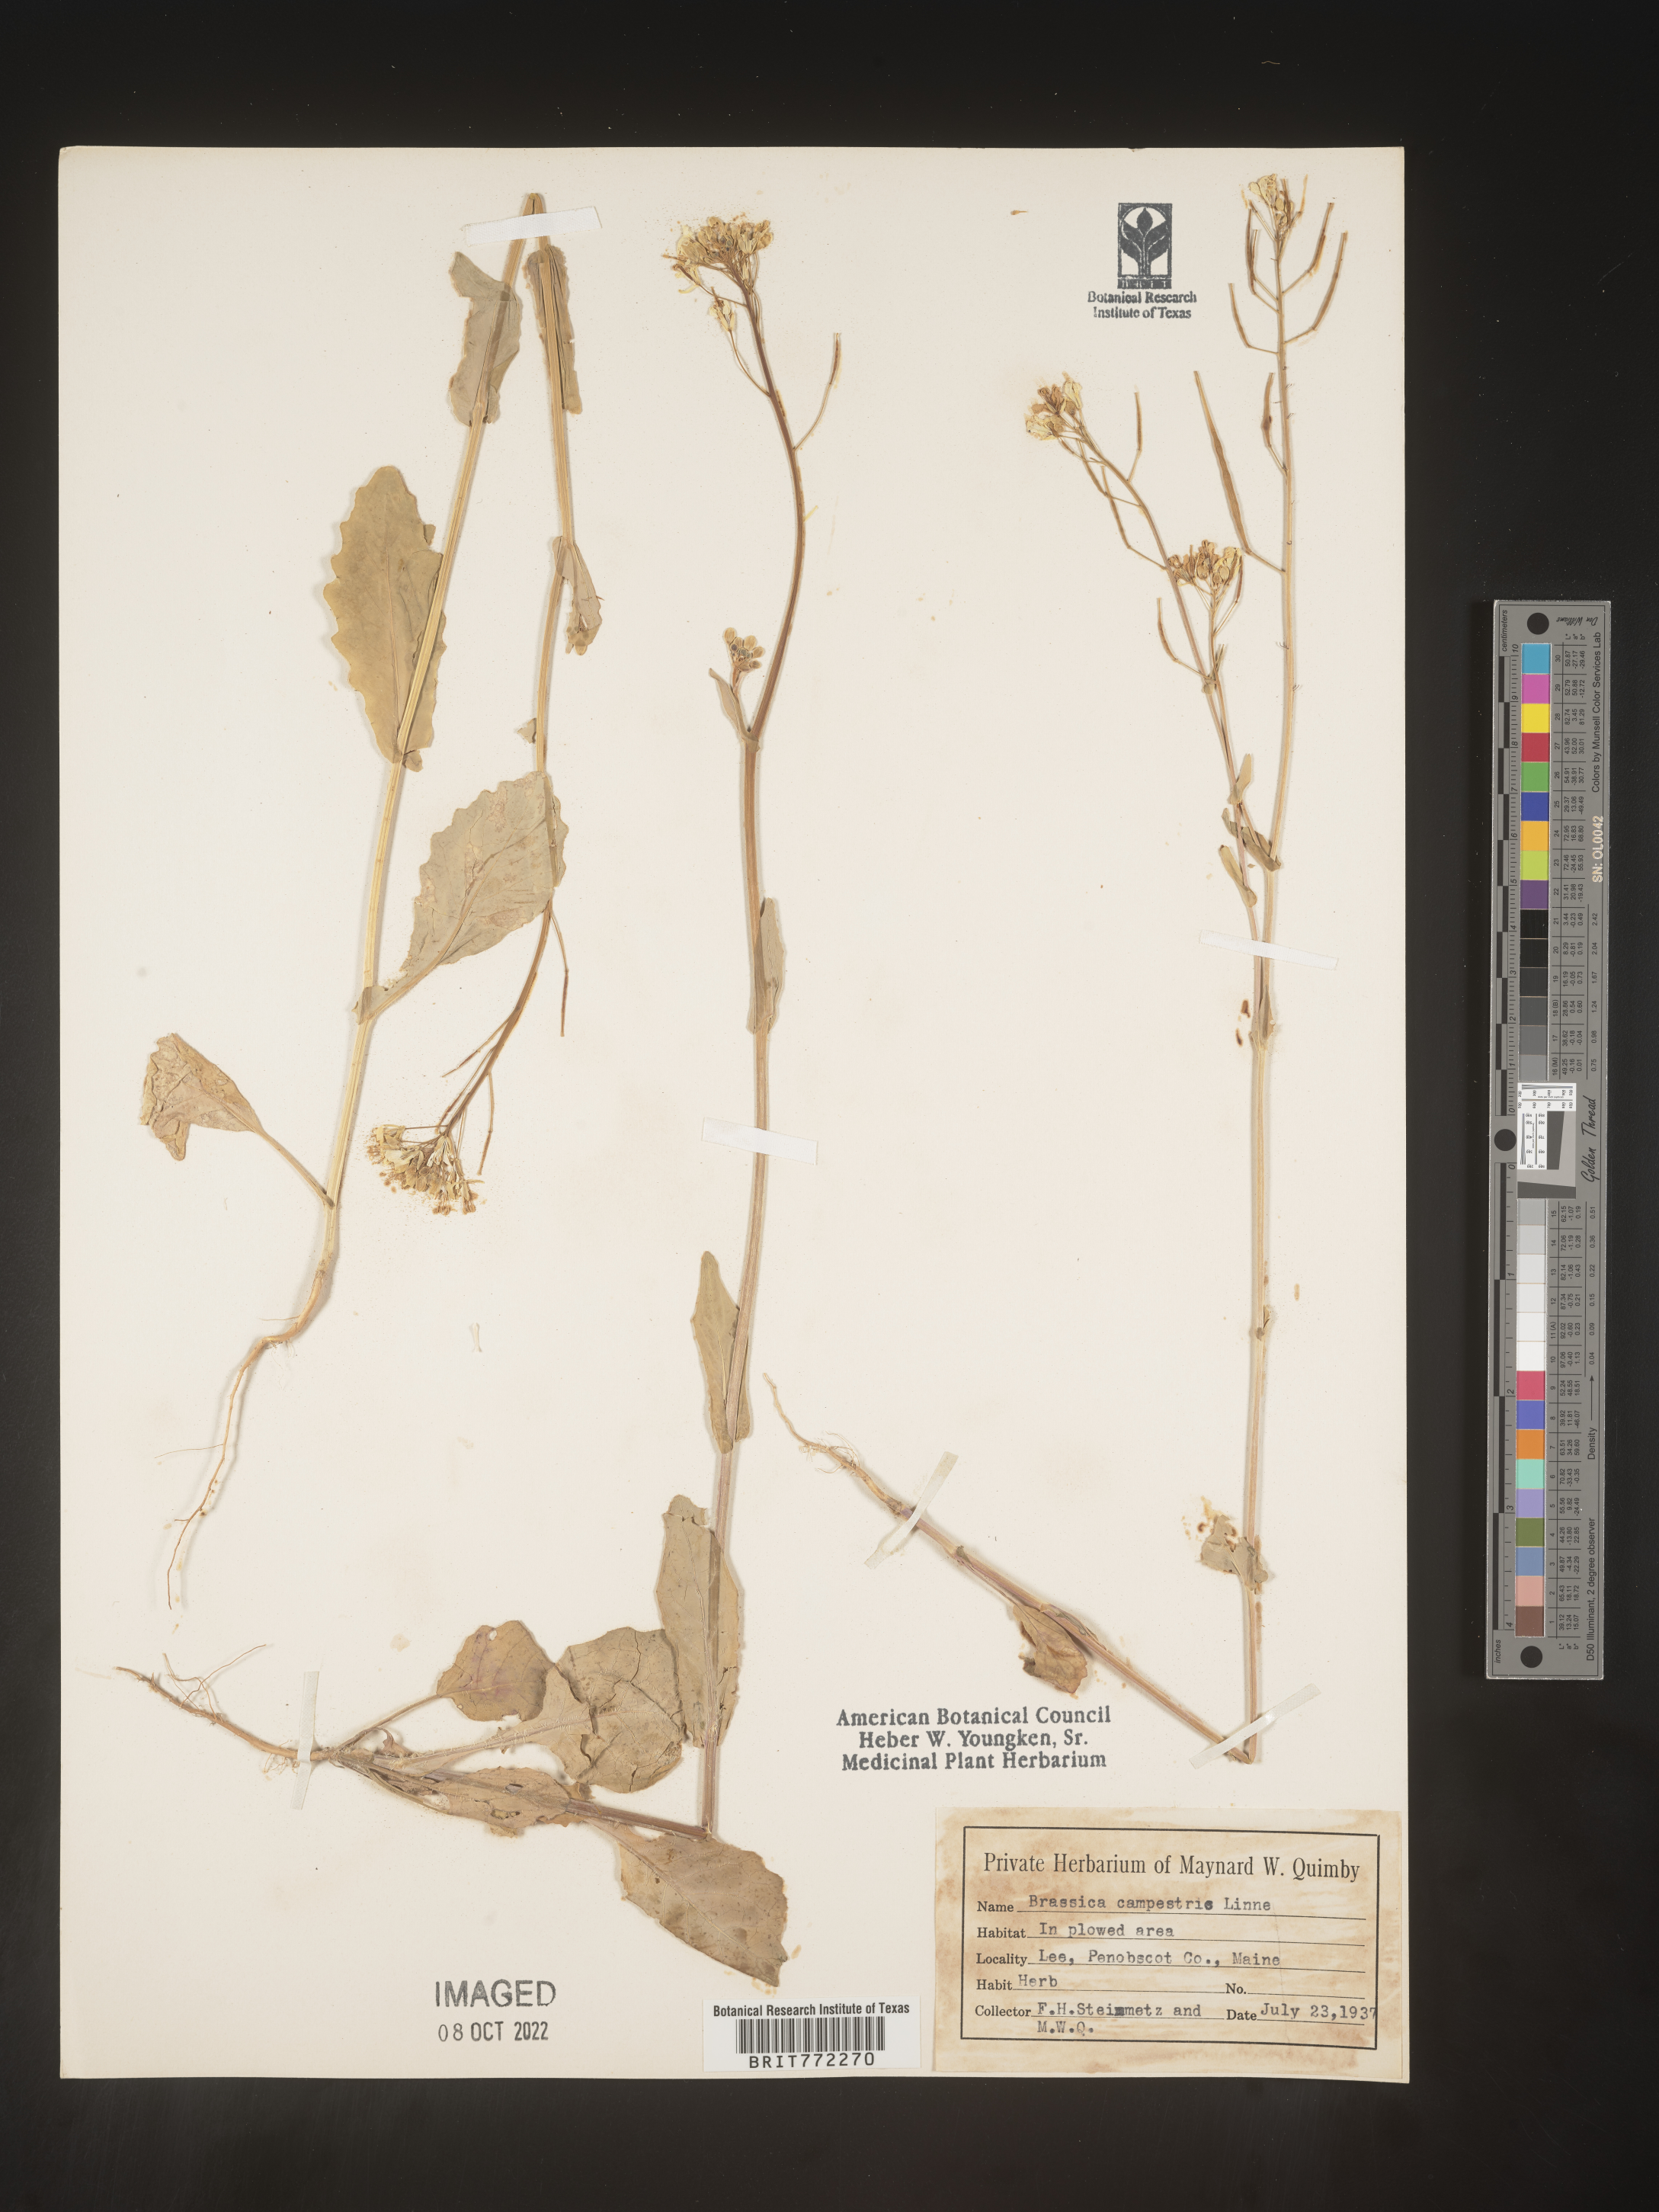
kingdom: Plantae
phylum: Tracheophyta
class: Magnoliopsida
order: Brassicales
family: Brassicaceae
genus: Brassica
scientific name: Brassica
